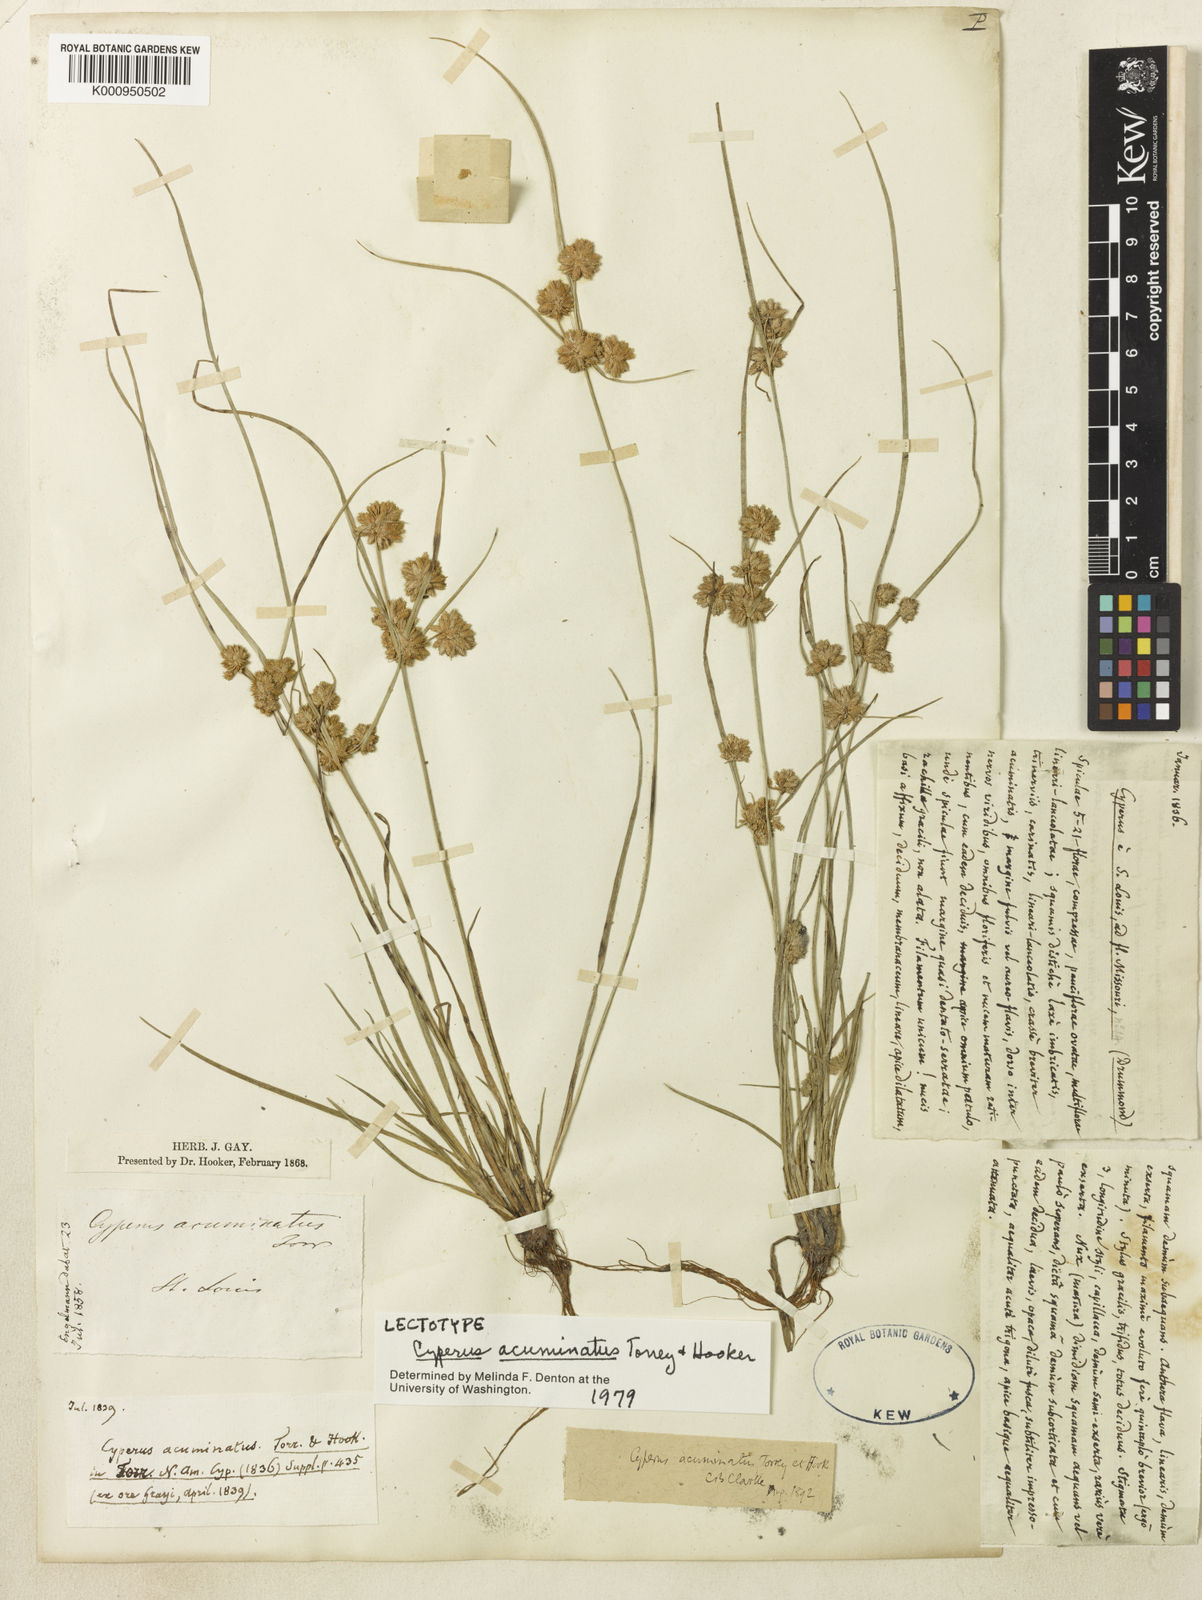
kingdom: Plantae
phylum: Tracheophyta
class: Liliopsida
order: Poales
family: Cyperaceae
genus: Cyperus
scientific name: Cyperus acuminatus
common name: Short-pointed cyperus
